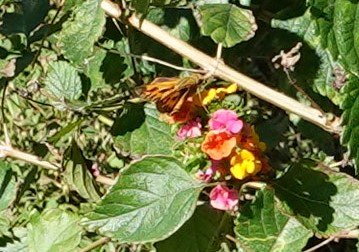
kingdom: Animalia
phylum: Arthropoda
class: Insecta
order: Lepidoptera
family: Hesperiidae
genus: Hylephila
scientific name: Hylephila phyleus
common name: Fiery Skipper
